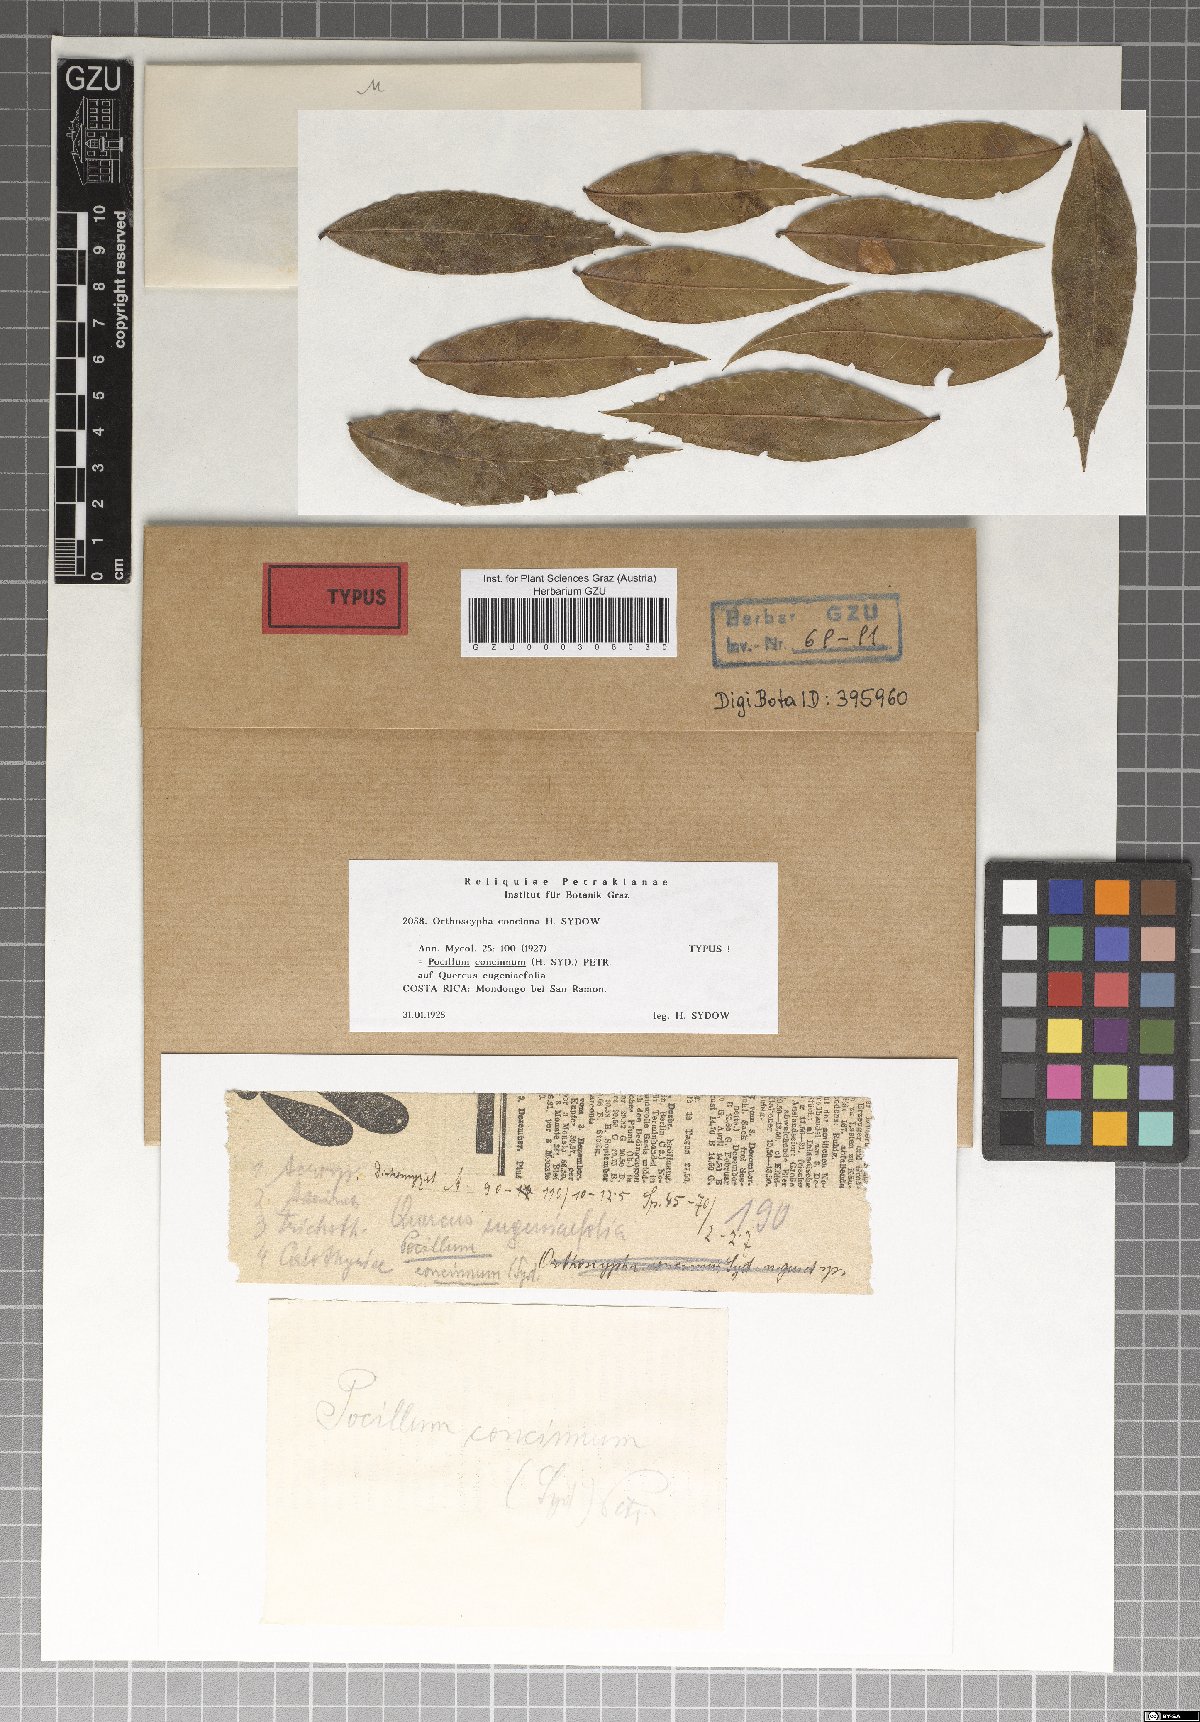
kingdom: Fungi
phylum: Ascomycota
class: Leotiomycetes
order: Helotiales
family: Vibrisseaceae
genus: Pocillum
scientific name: Pocillum concinnum
